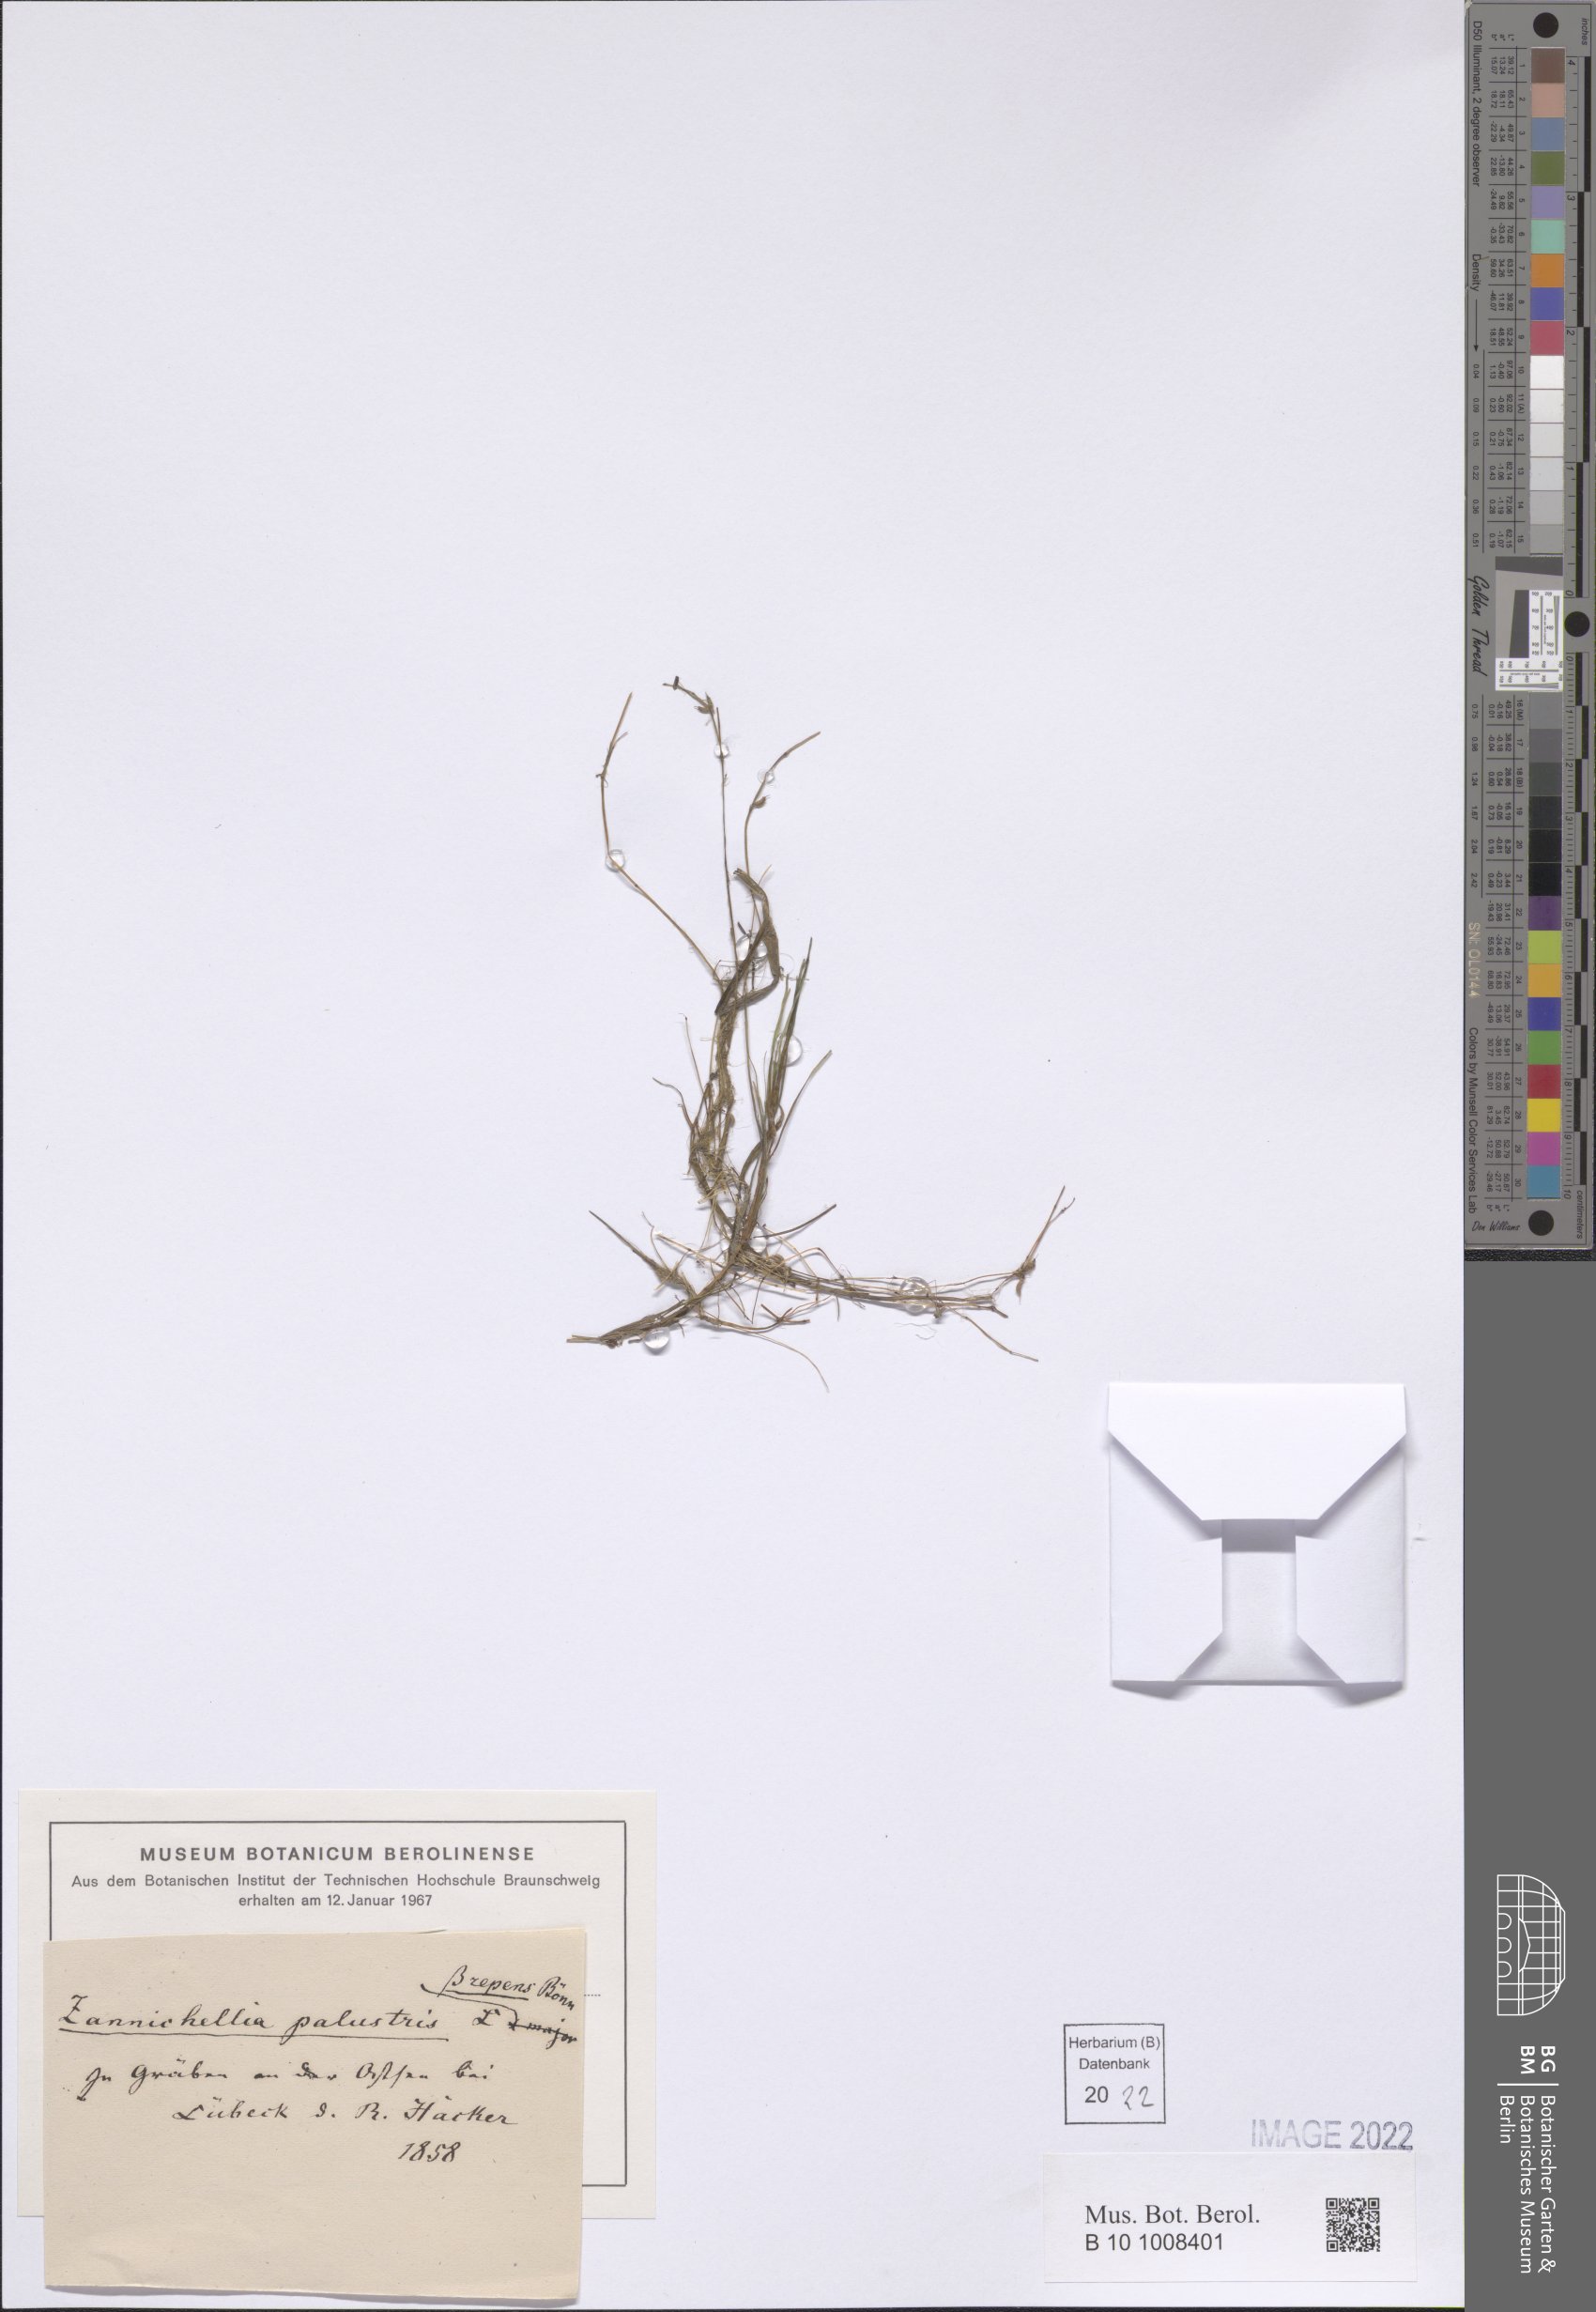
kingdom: Plantae
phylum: Tracheophyta
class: Liliopsida
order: Alismatales
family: Potamogetonaceae
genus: Zannichellia
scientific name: Zannichellia palustris
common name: Horned pondweed
